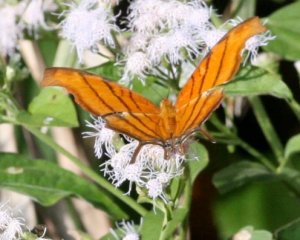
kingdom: Animalia
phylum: Arthropoda
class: Insecta
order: Lepidoptera
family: Nymphalidae
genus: Marpesia
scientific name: Marpesia petreus
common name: Ruddy Daggerwing
